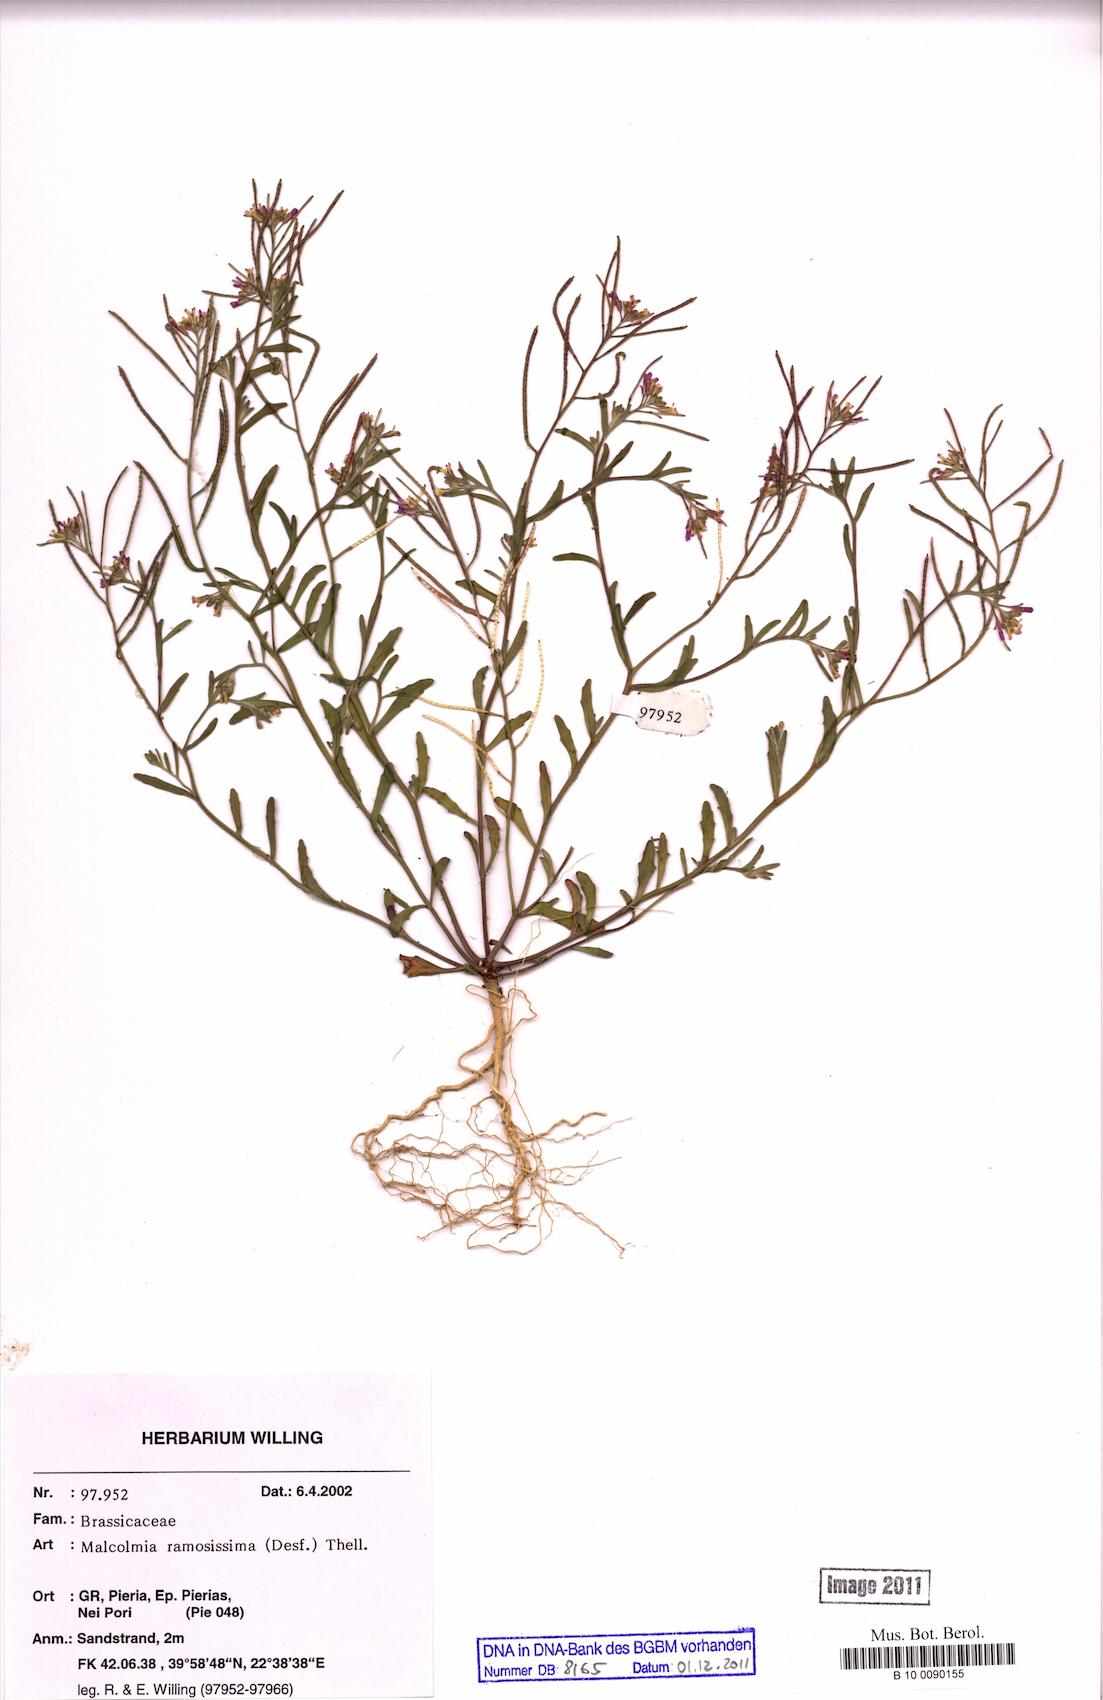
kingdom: Plantae
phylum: Tracheophyta
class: Magnoliopsida
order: Brassicales
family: Brassicaceae
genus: Marcuskochia
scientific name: Marcuskochia ramosissima
